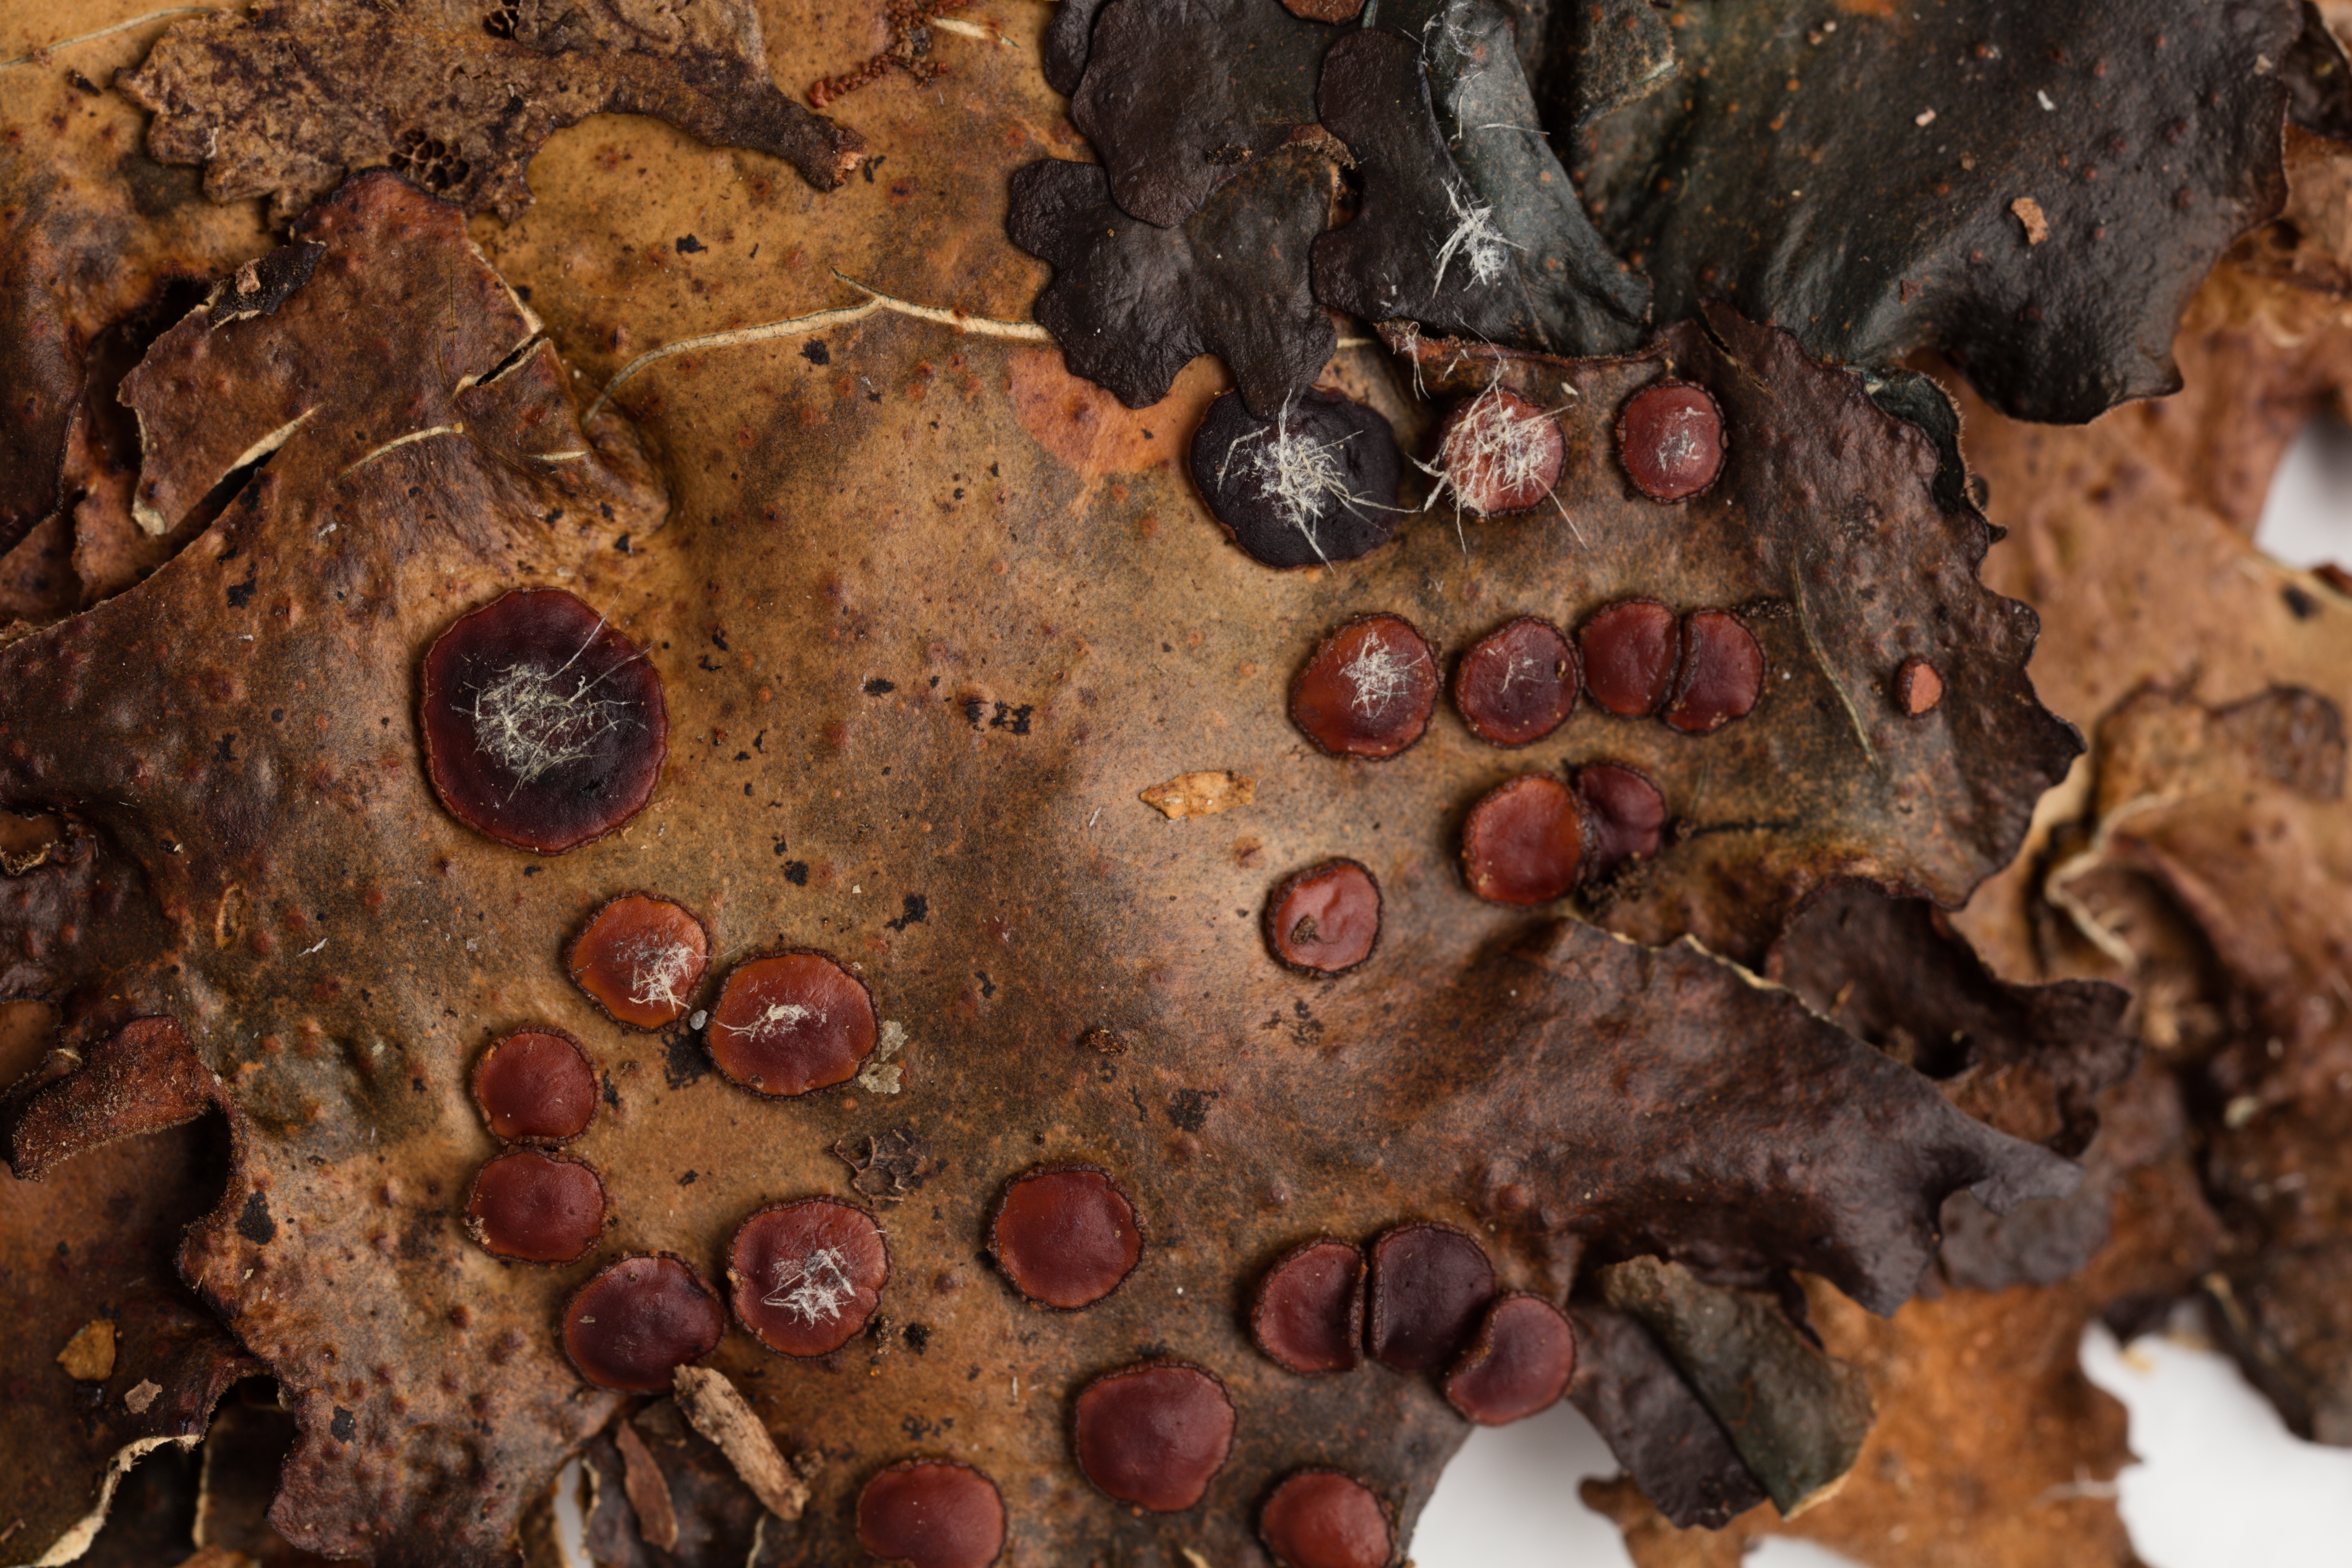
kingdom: Fungi
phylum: Ascomycota
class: Lecanoromycetes
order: Peltigerales
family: Lobariaceae
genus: Sticta
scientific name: Sticta gaudichaudii
